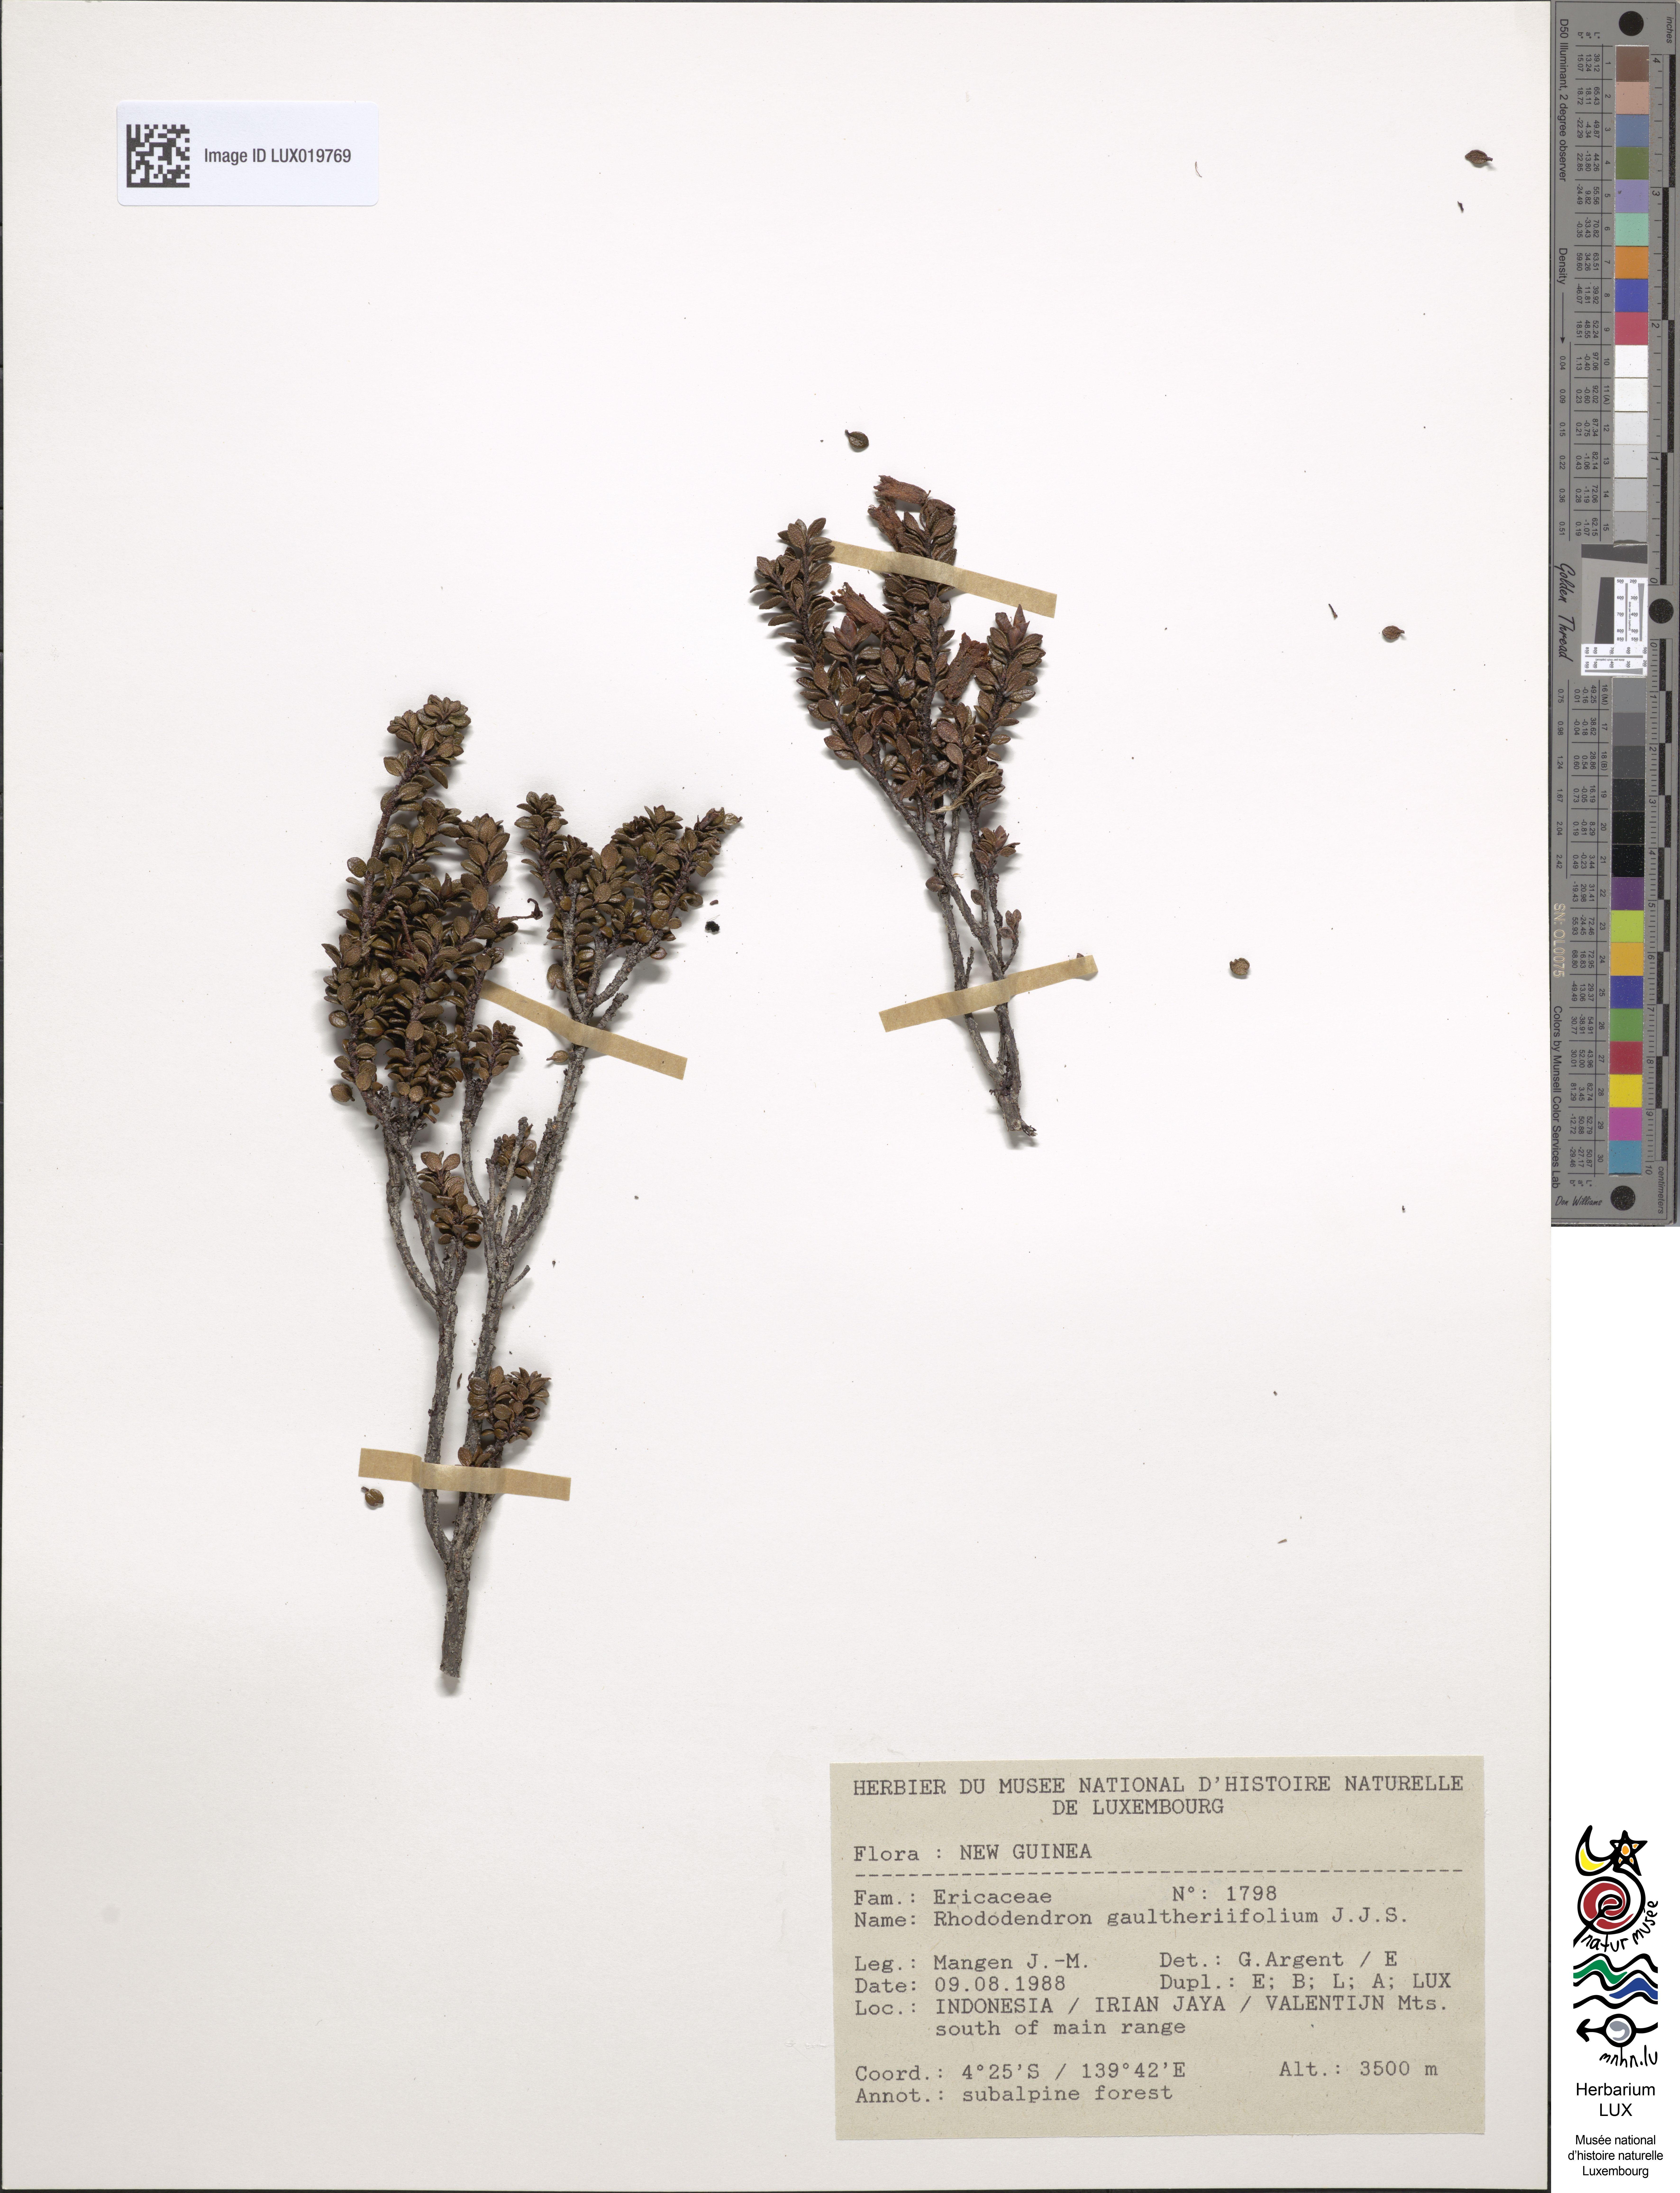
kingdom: Plantae
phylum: Tracheophyta
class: Magnoliopsida
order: Ericales
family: Ericaceae
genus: Rhododendron
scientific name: Rhododendron gaultheriifolium
